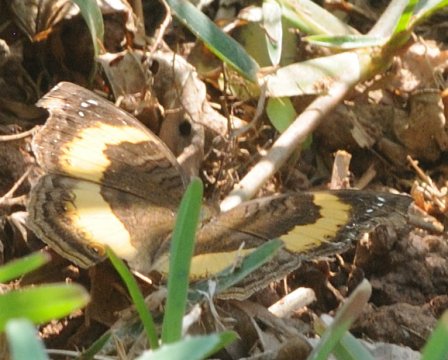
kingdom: Animalia
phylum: Arthropoda
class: Insecta
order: Lepidoptera
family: Nymphalidae
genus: Junonia
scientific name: Junonia terea
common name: Soldier Pansy
